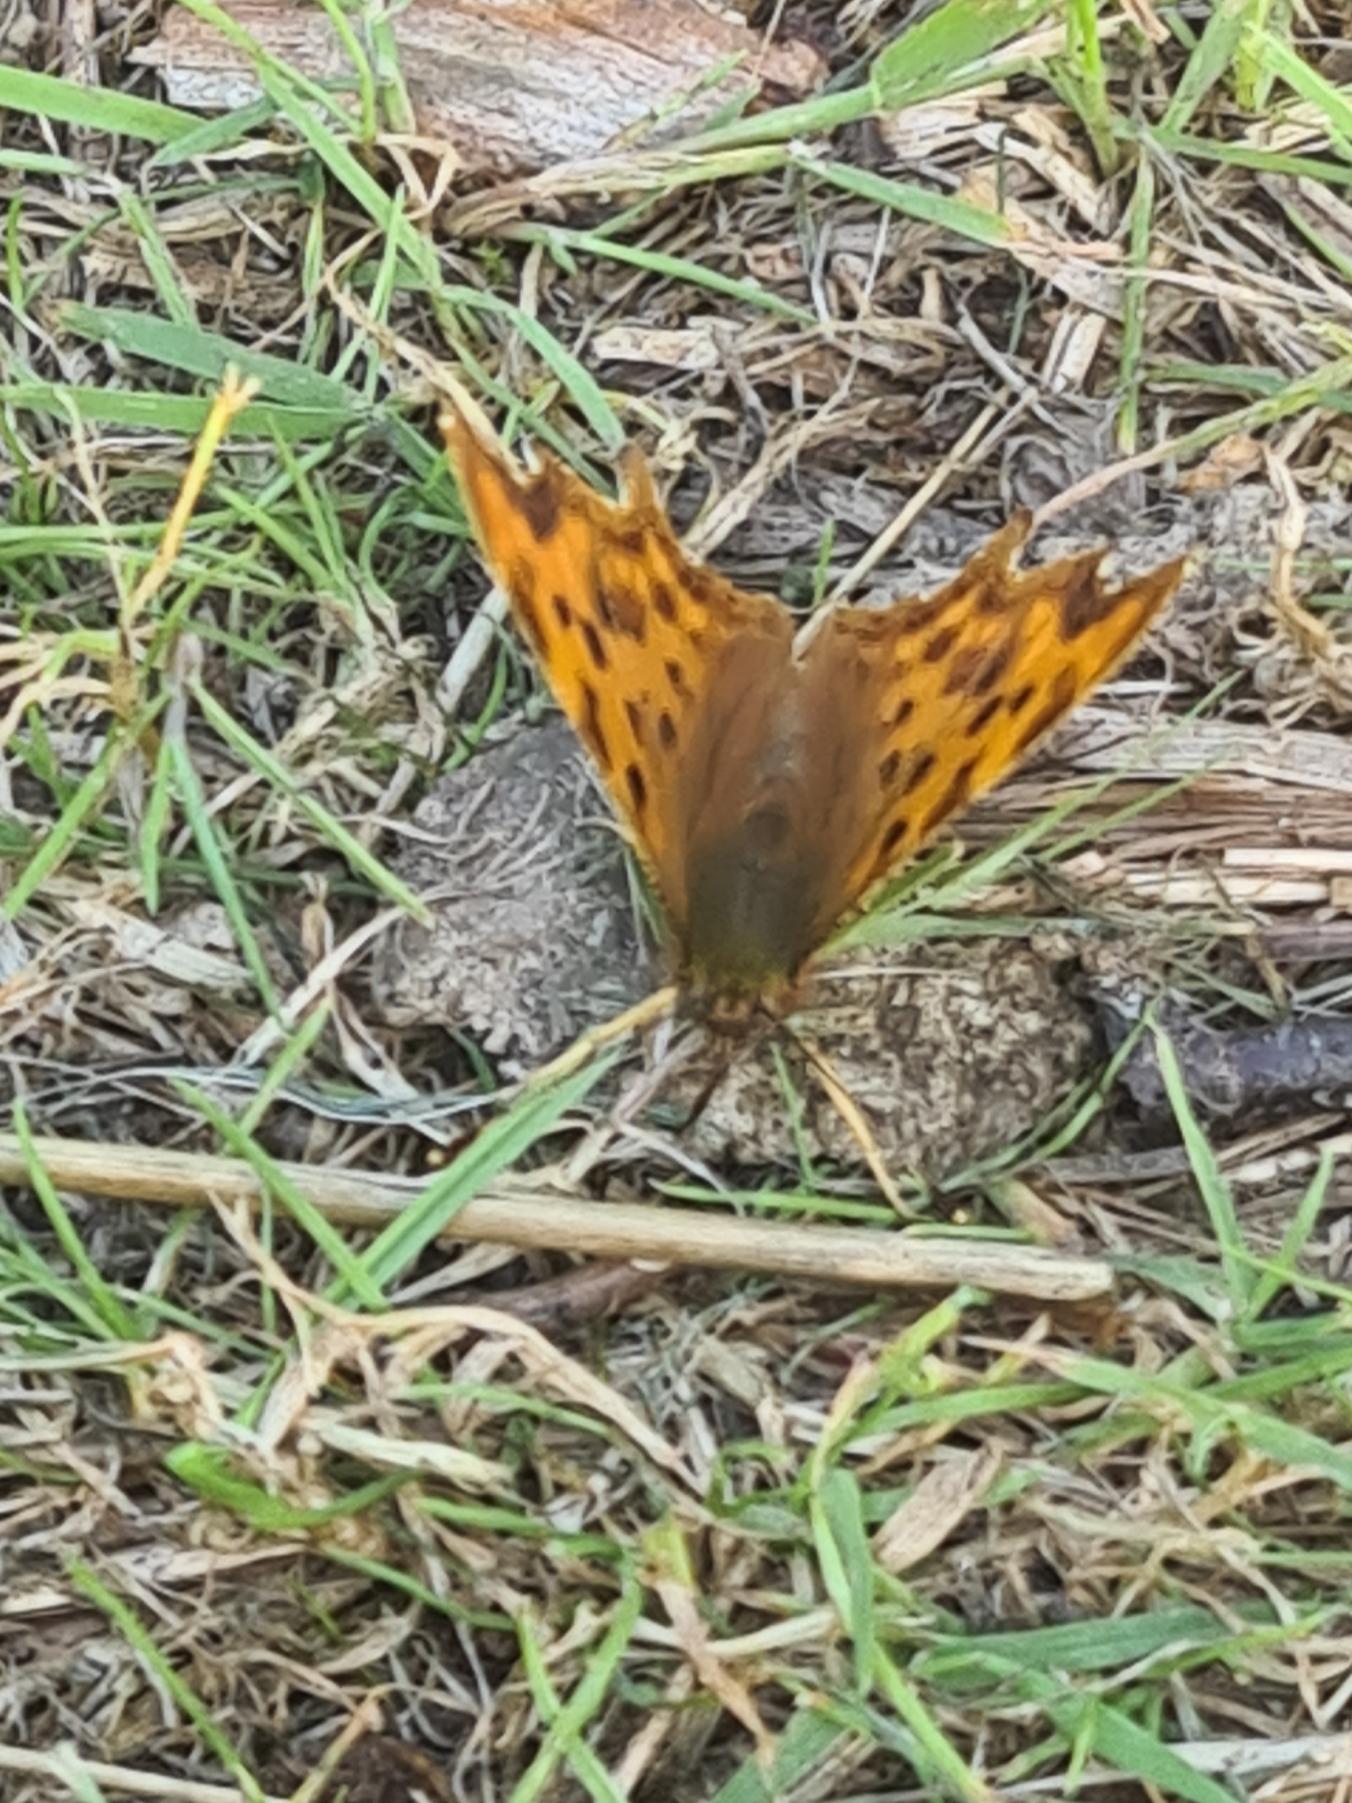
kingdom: Animalia
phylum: Arthropoda
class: Insecta
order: Lepidoptera
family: Nymphalidae
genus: Polygonia
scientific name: Polygonia c-album
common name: Det hvide C
